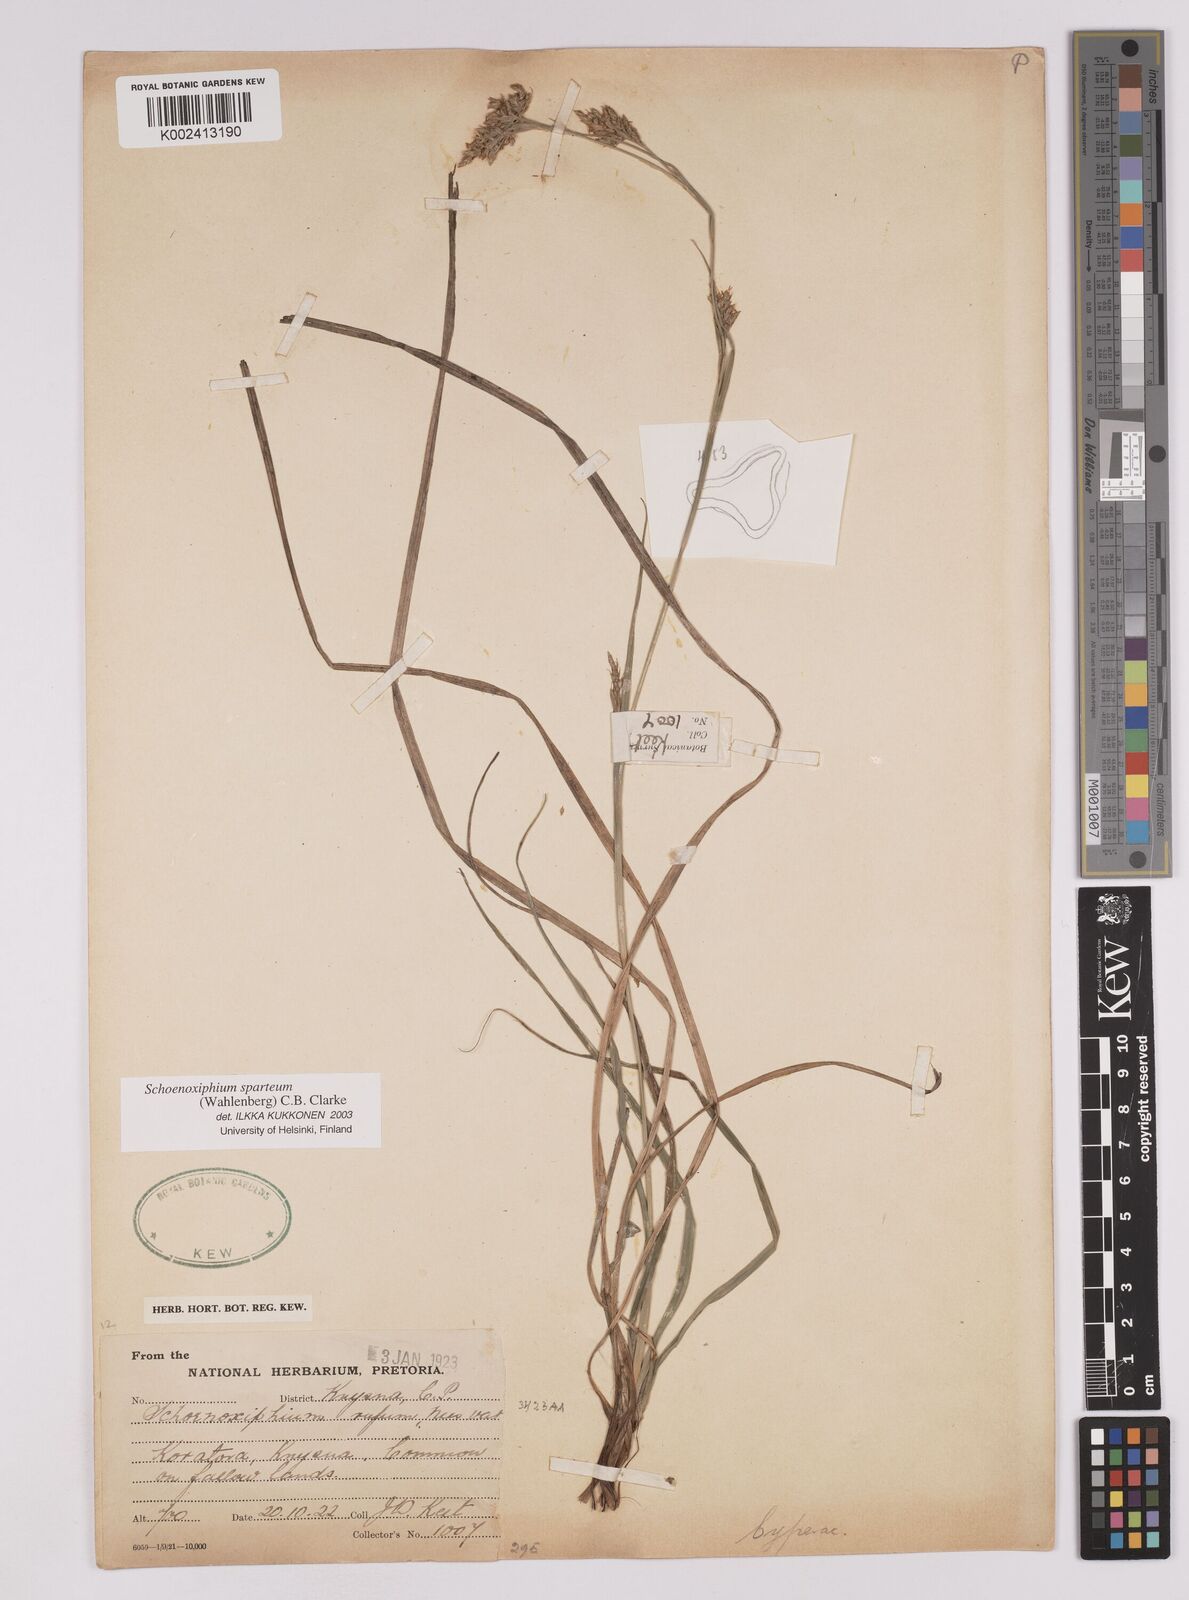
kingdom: Plantae
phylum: Tracheophyta
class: Liliopsida
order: Poales
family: Cyperaceae
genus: Carex
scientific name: Carex spartea
